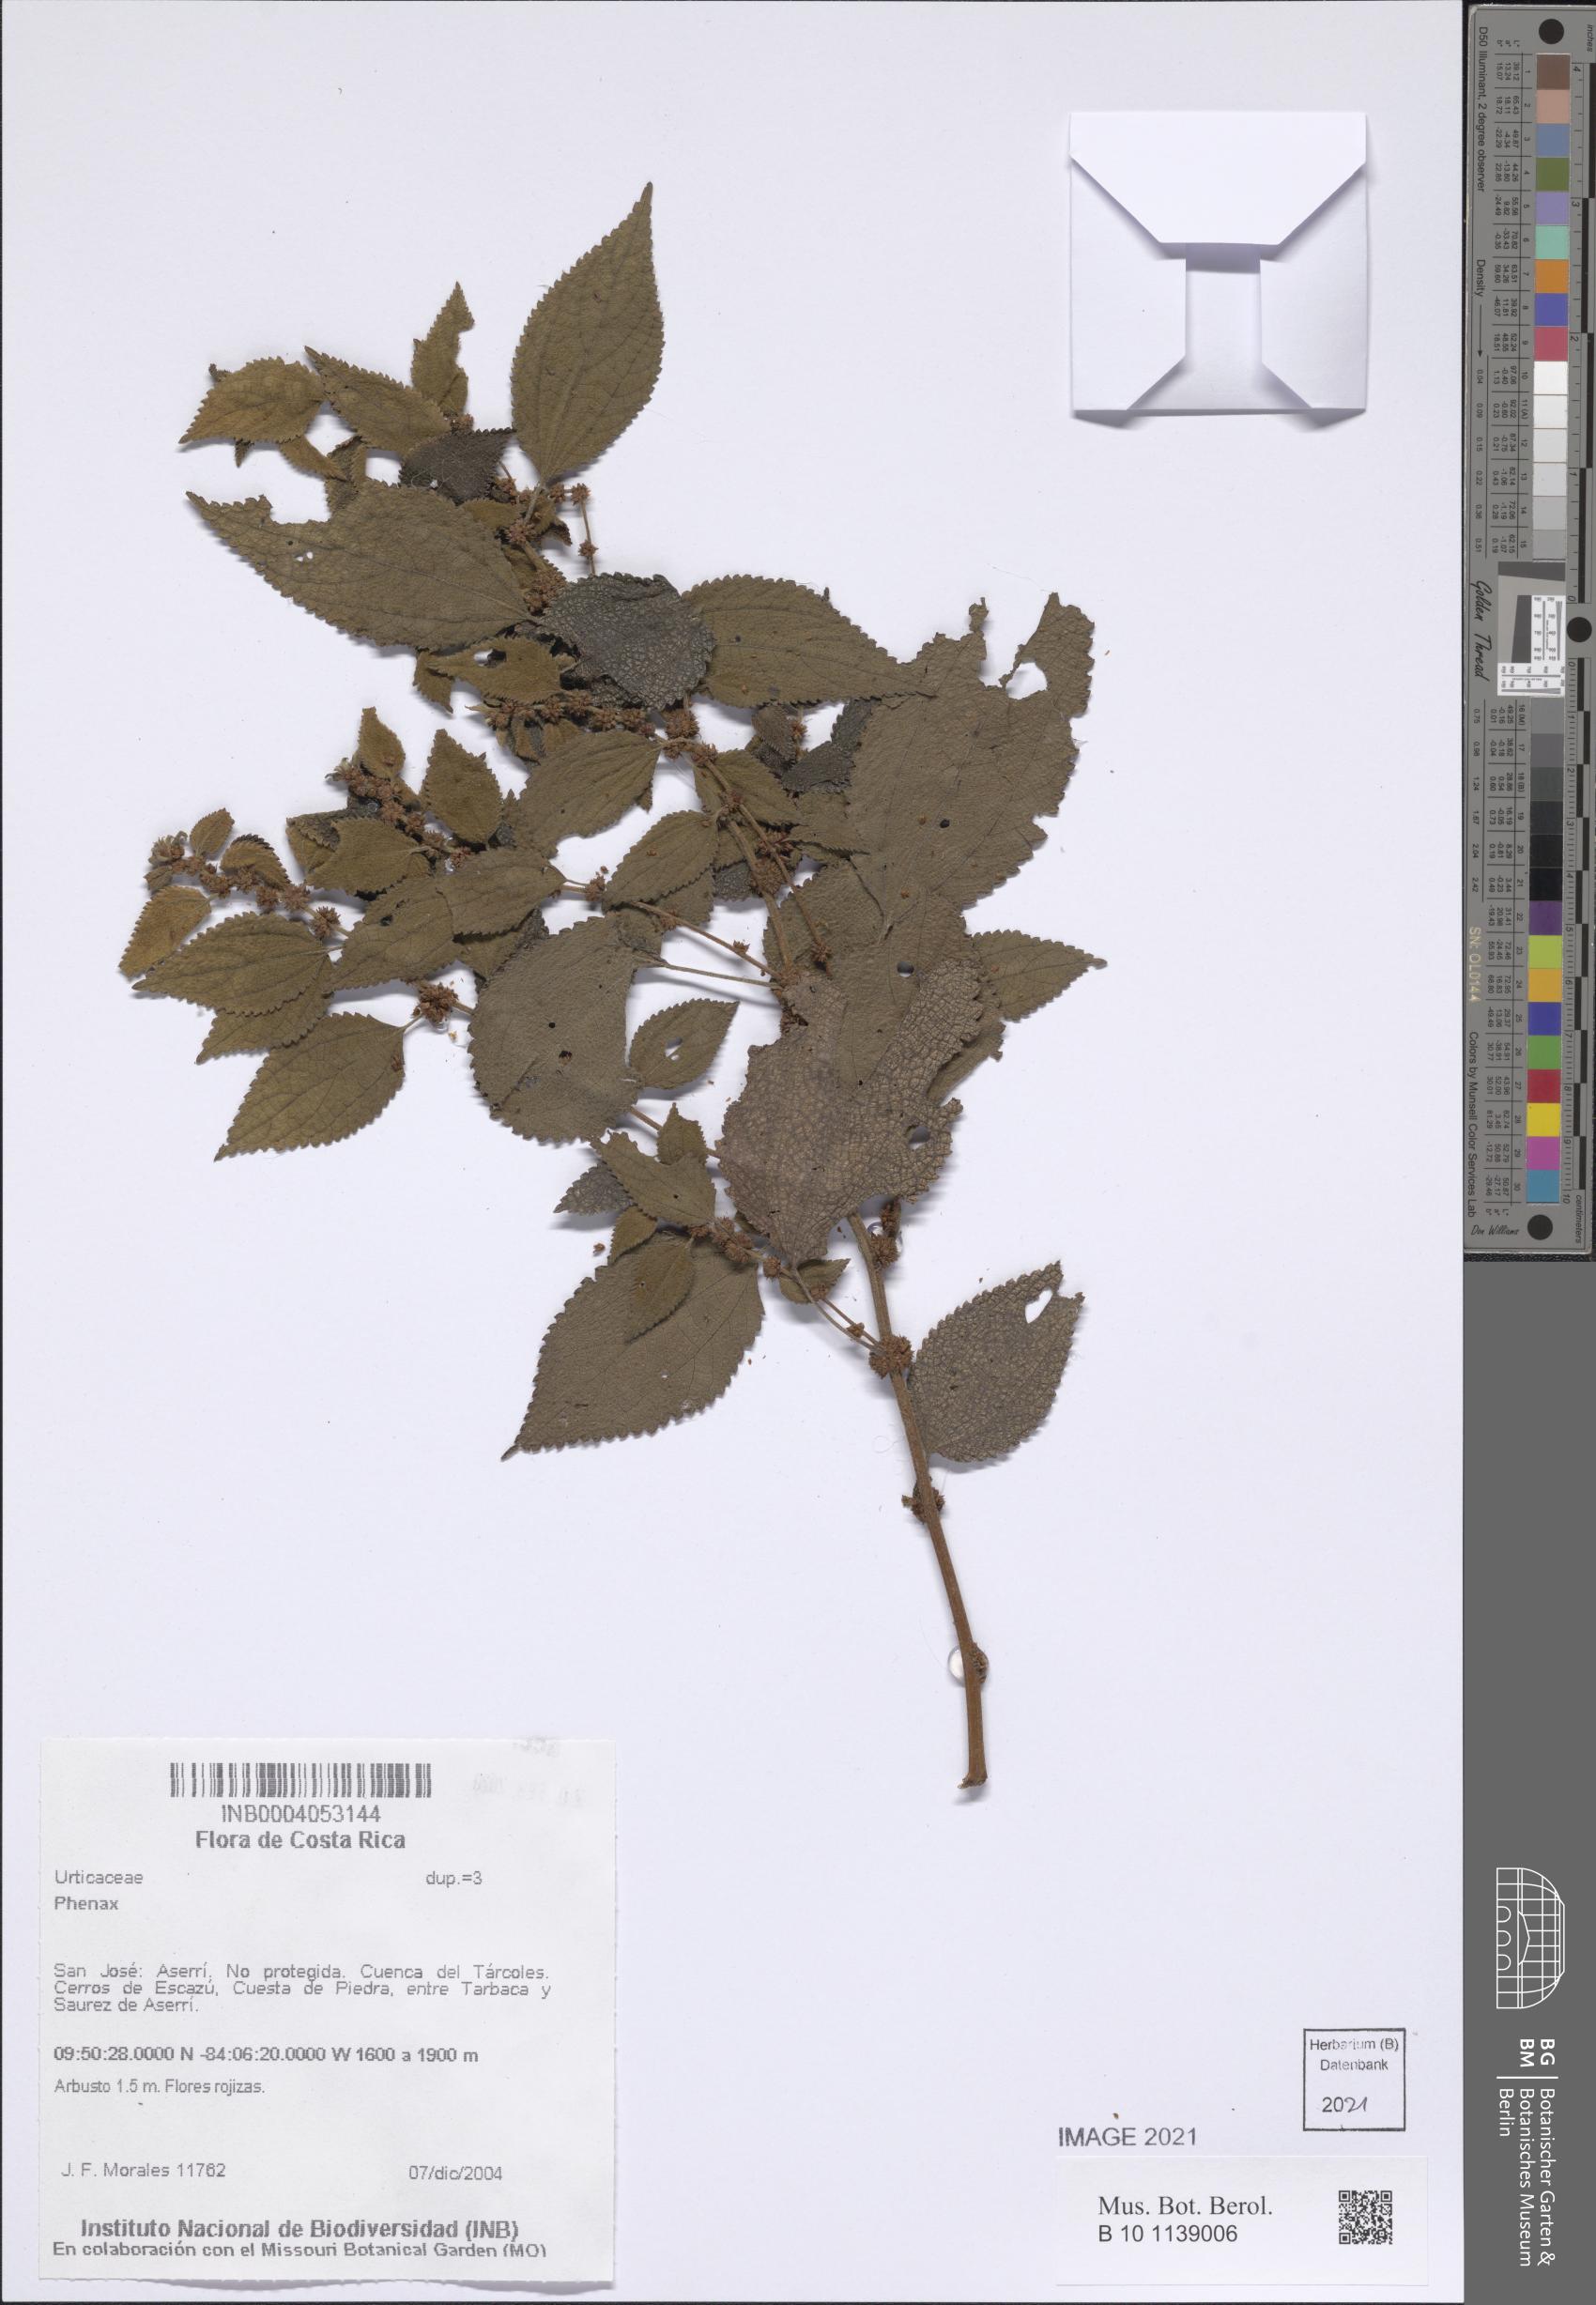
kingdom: Plantae
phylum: Tracheophyta
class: Magnoliopsida
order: Rosales
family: Urticaceae
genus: Phenax
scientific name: Phenax
